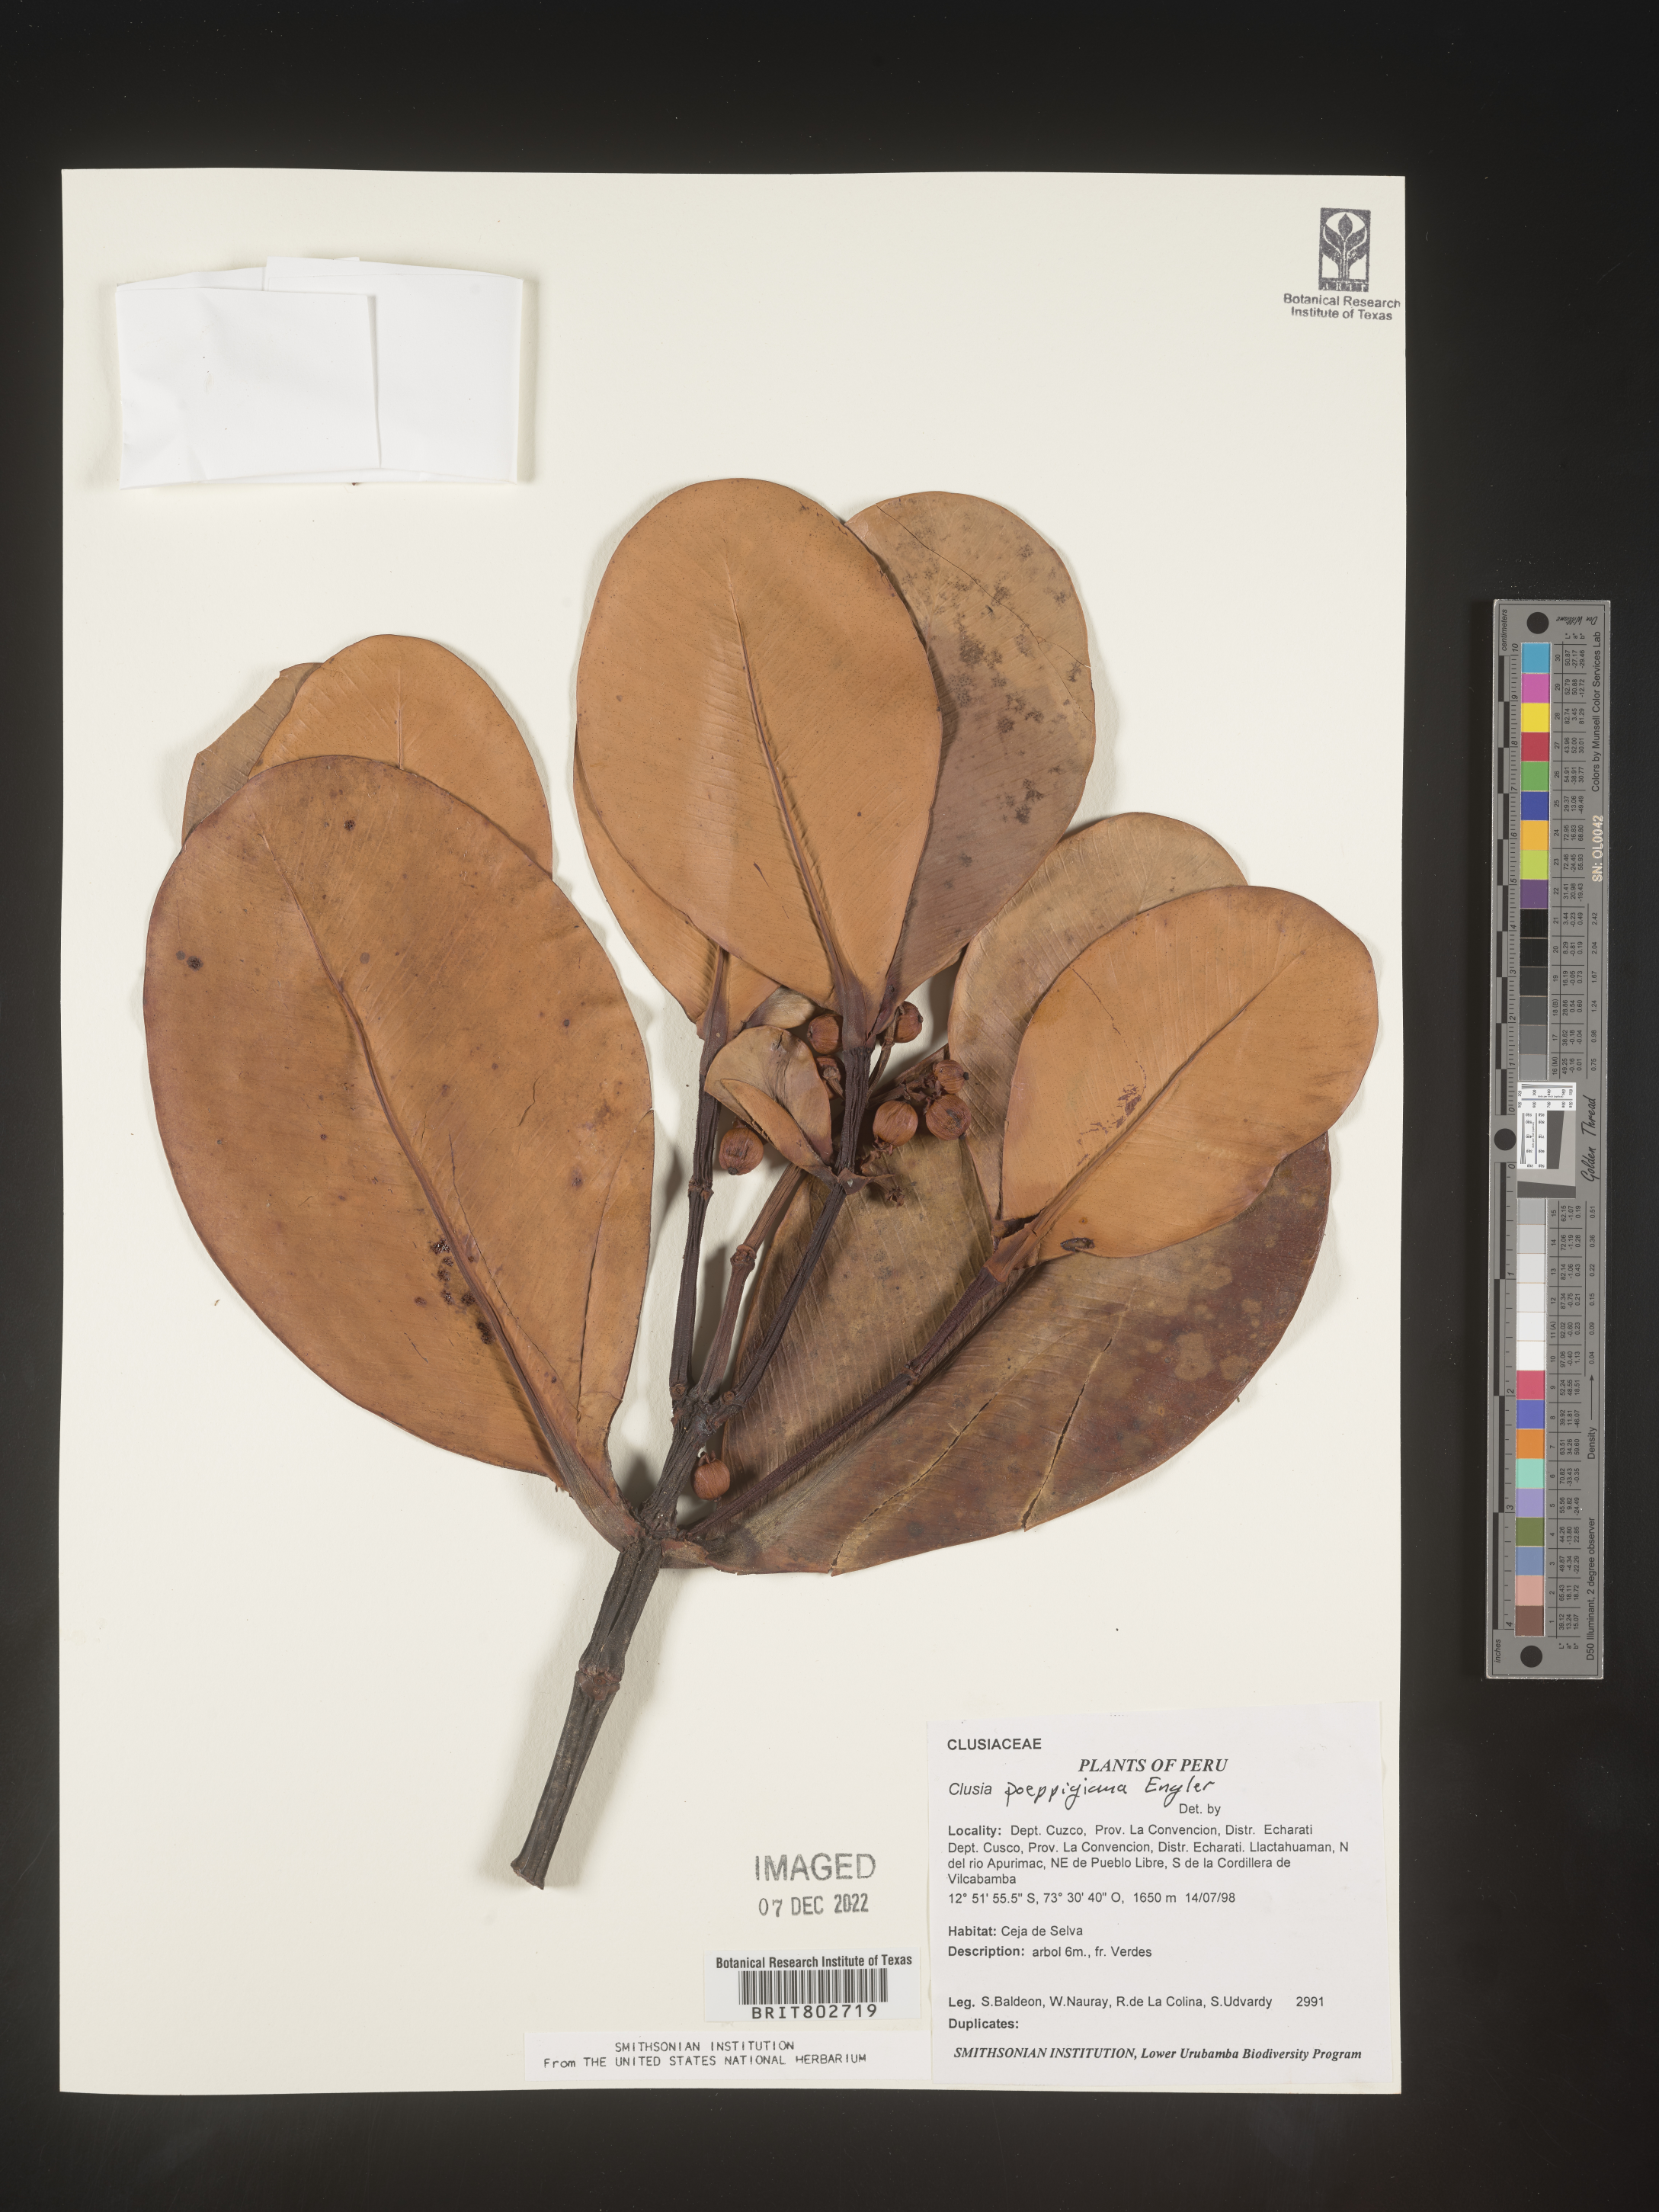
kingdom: Plantae
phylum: Tracheophyta
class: Magnoliopsida
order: Malpighiales
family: Clusiaceae
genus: Clusia
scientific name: Clusia
